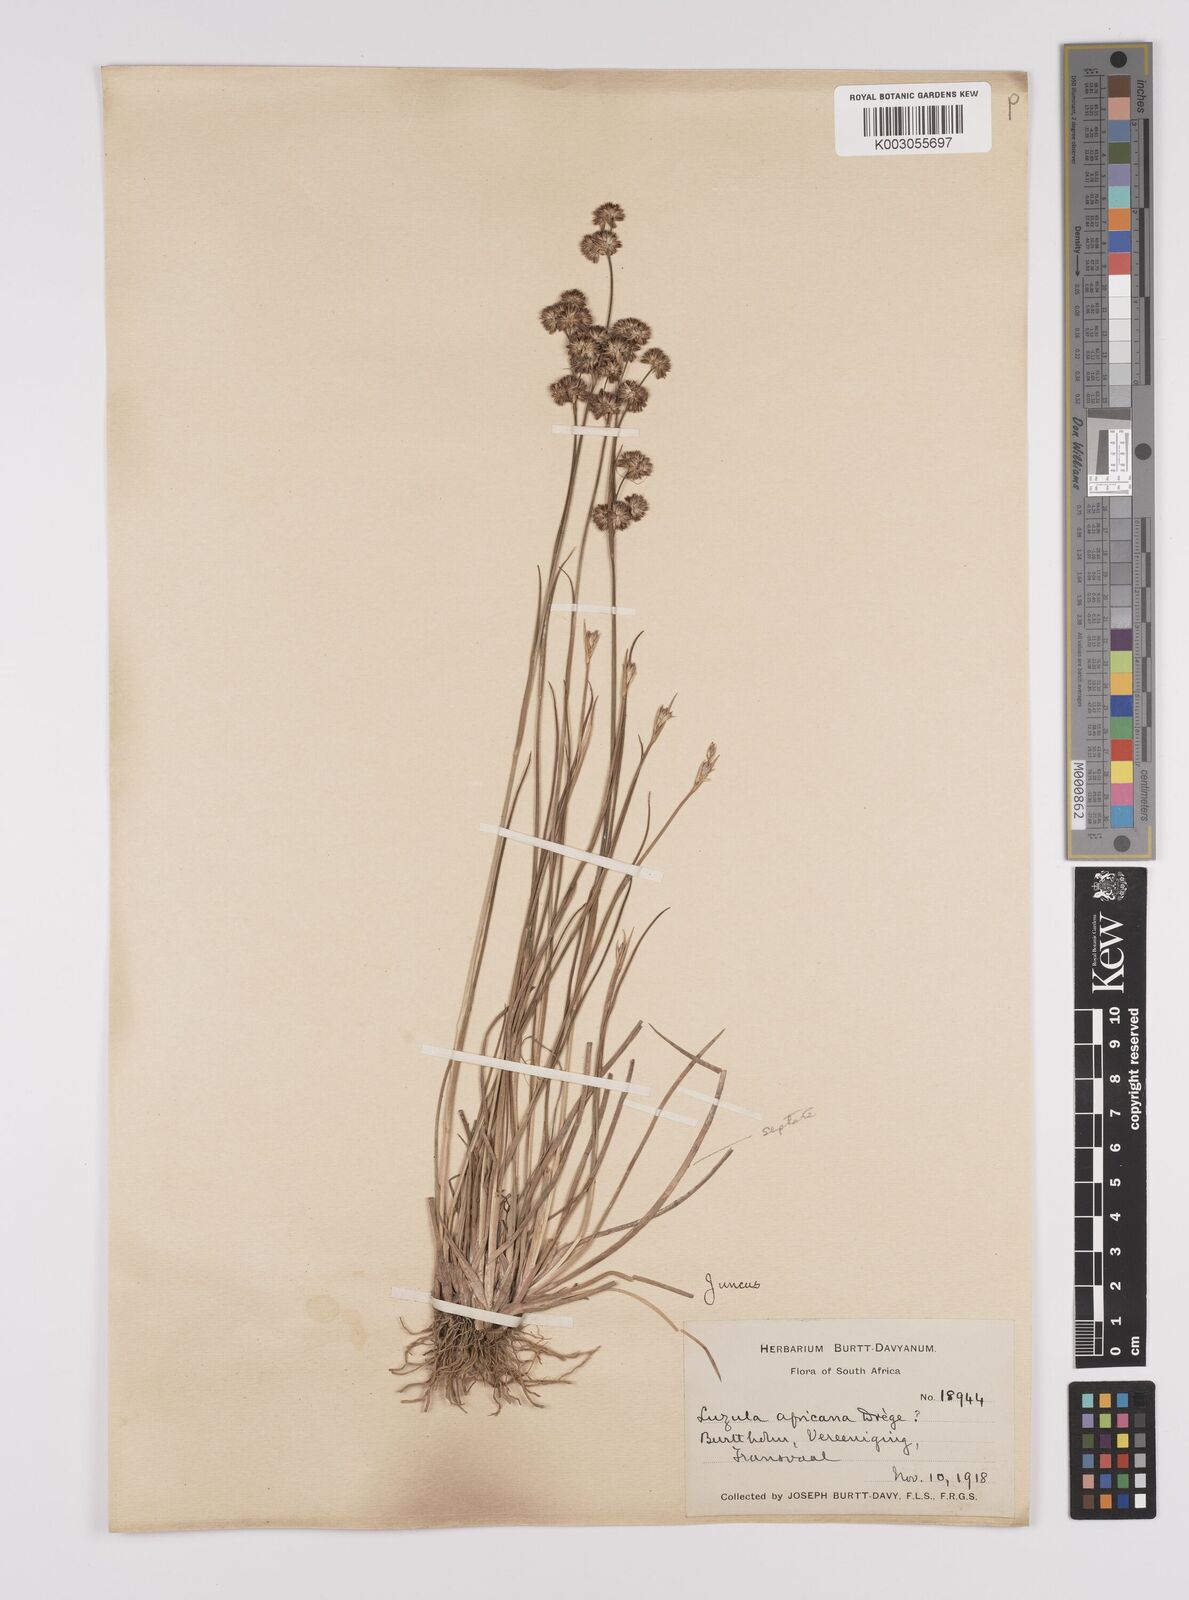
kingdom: Plantae
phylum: Tracheophyta
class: Liliopsida
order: Poales
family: Juncaceae
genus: Juncus
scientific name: Juncus oxycarpus
